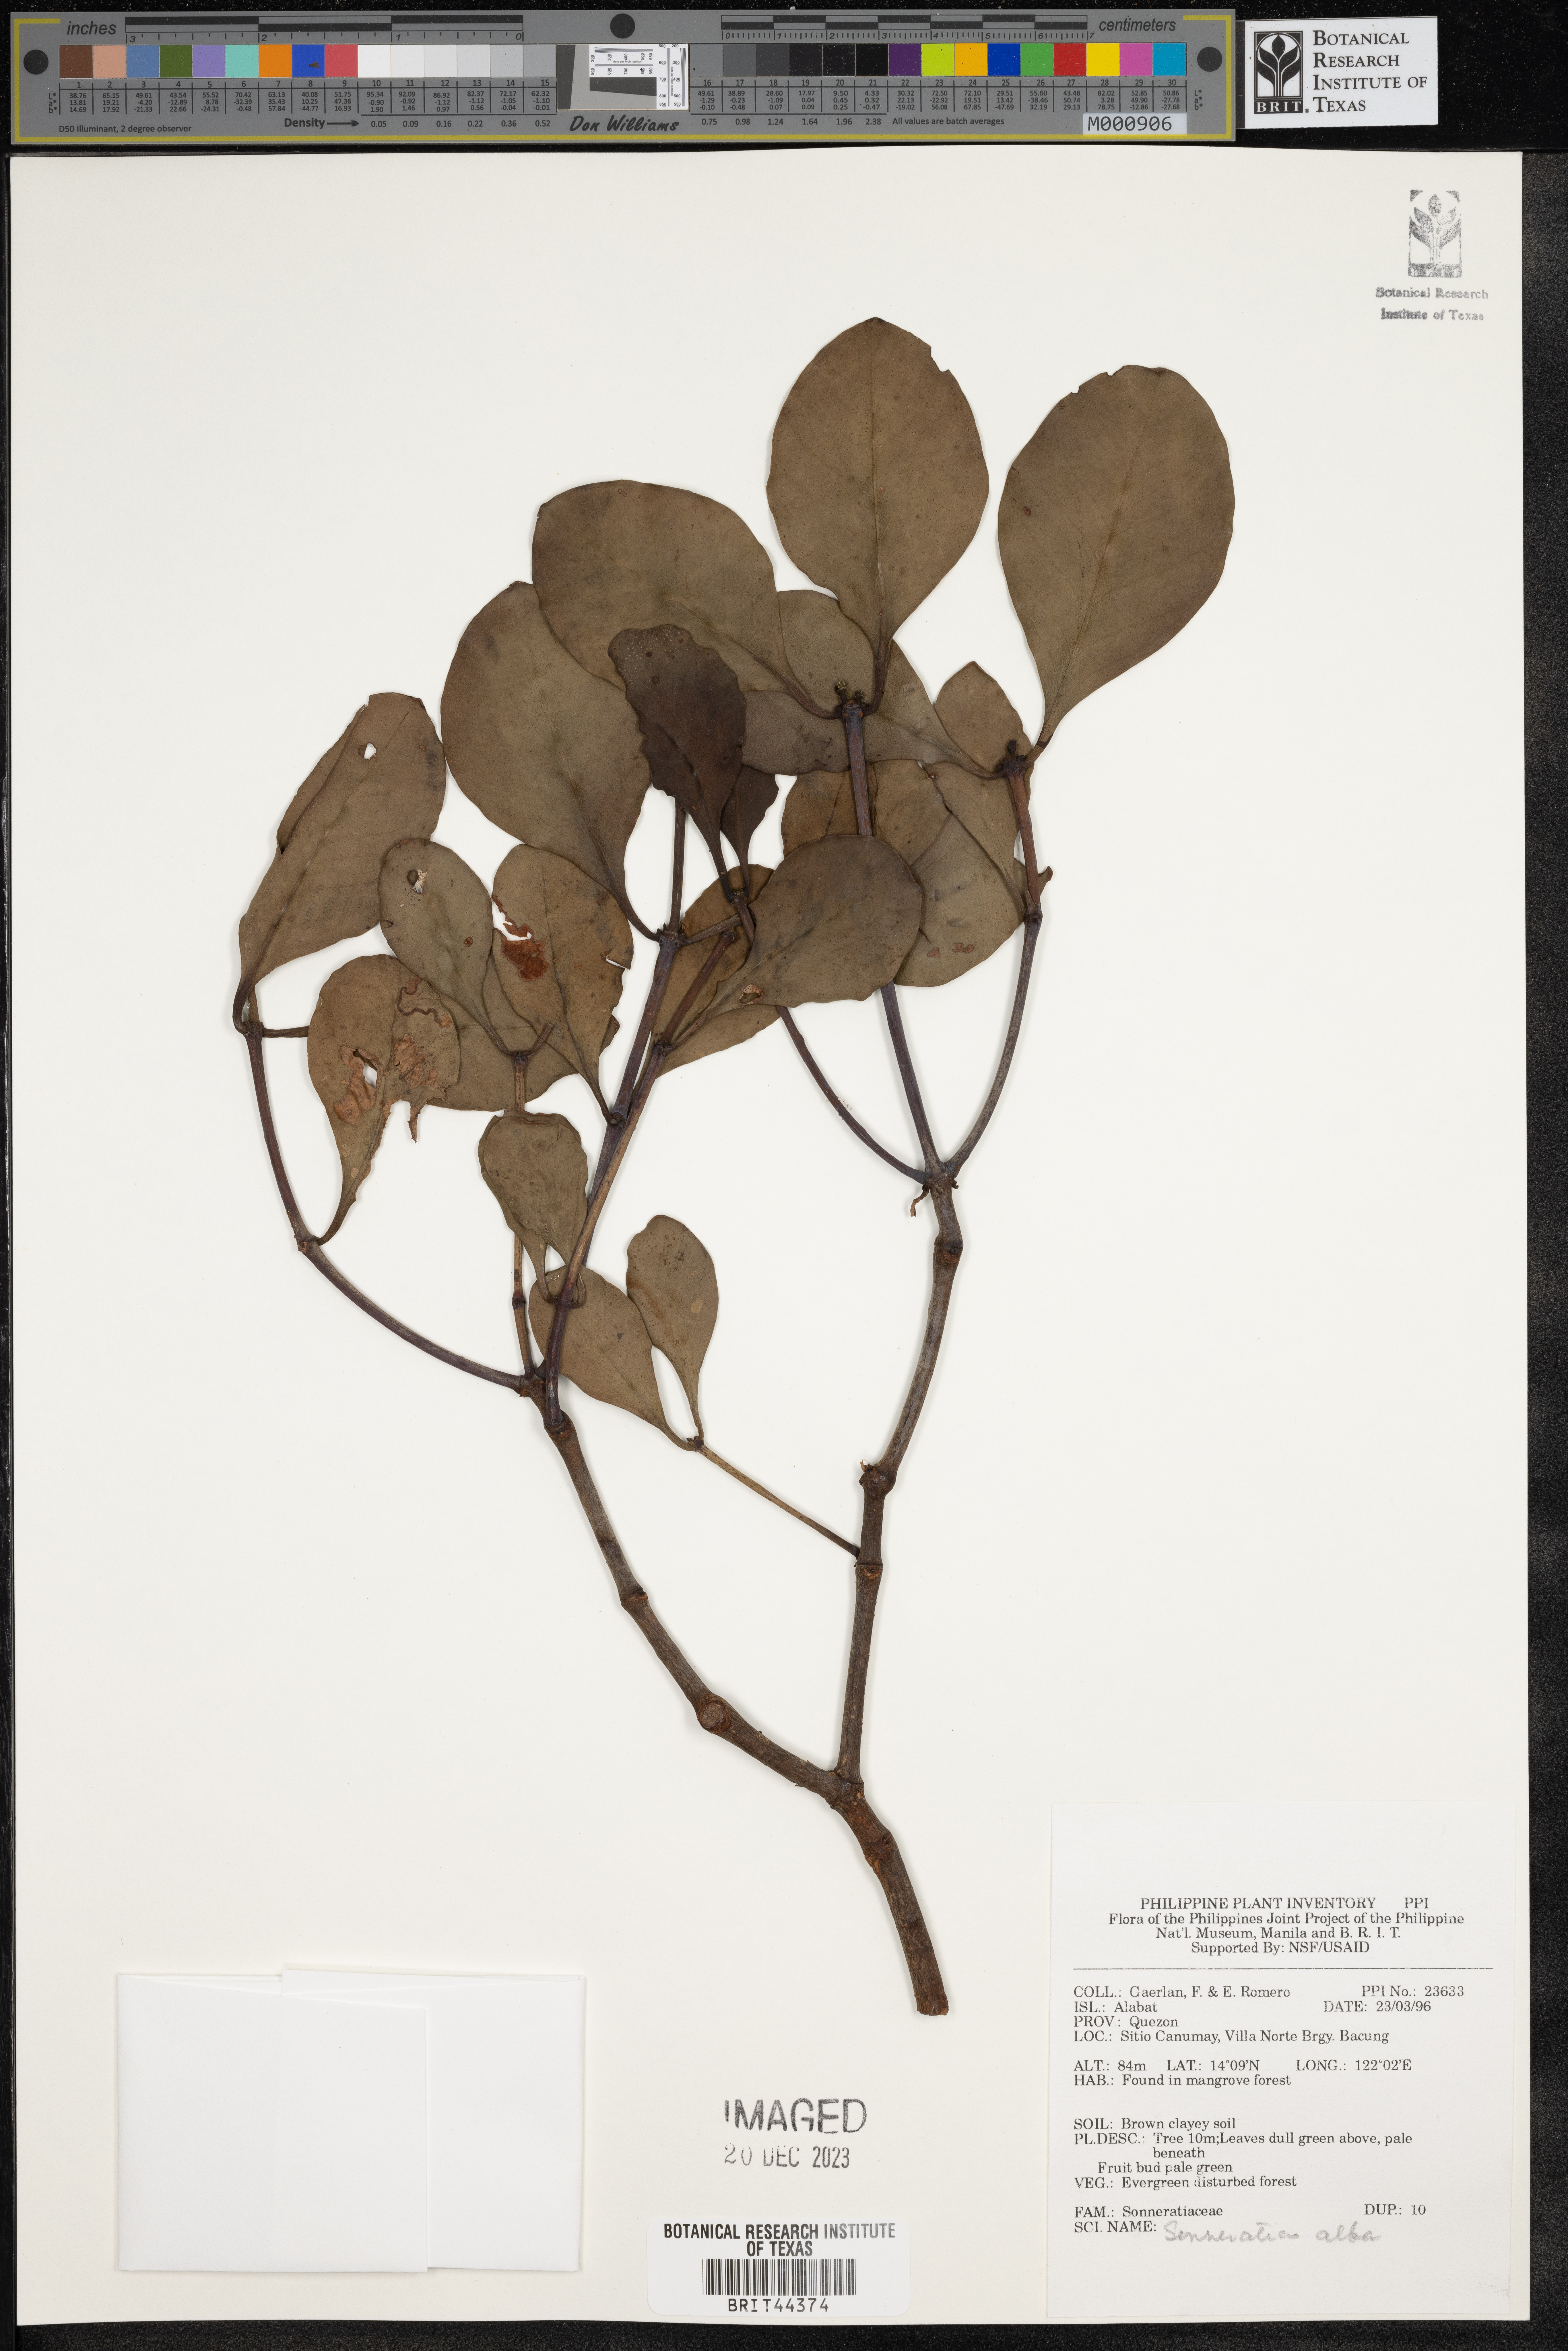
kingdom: Plantae
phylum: Tracheophyta
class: Magnoliopsida
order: Myrtales
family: Lythraceae
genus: Sonneratia
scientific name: Sonneratia alba
